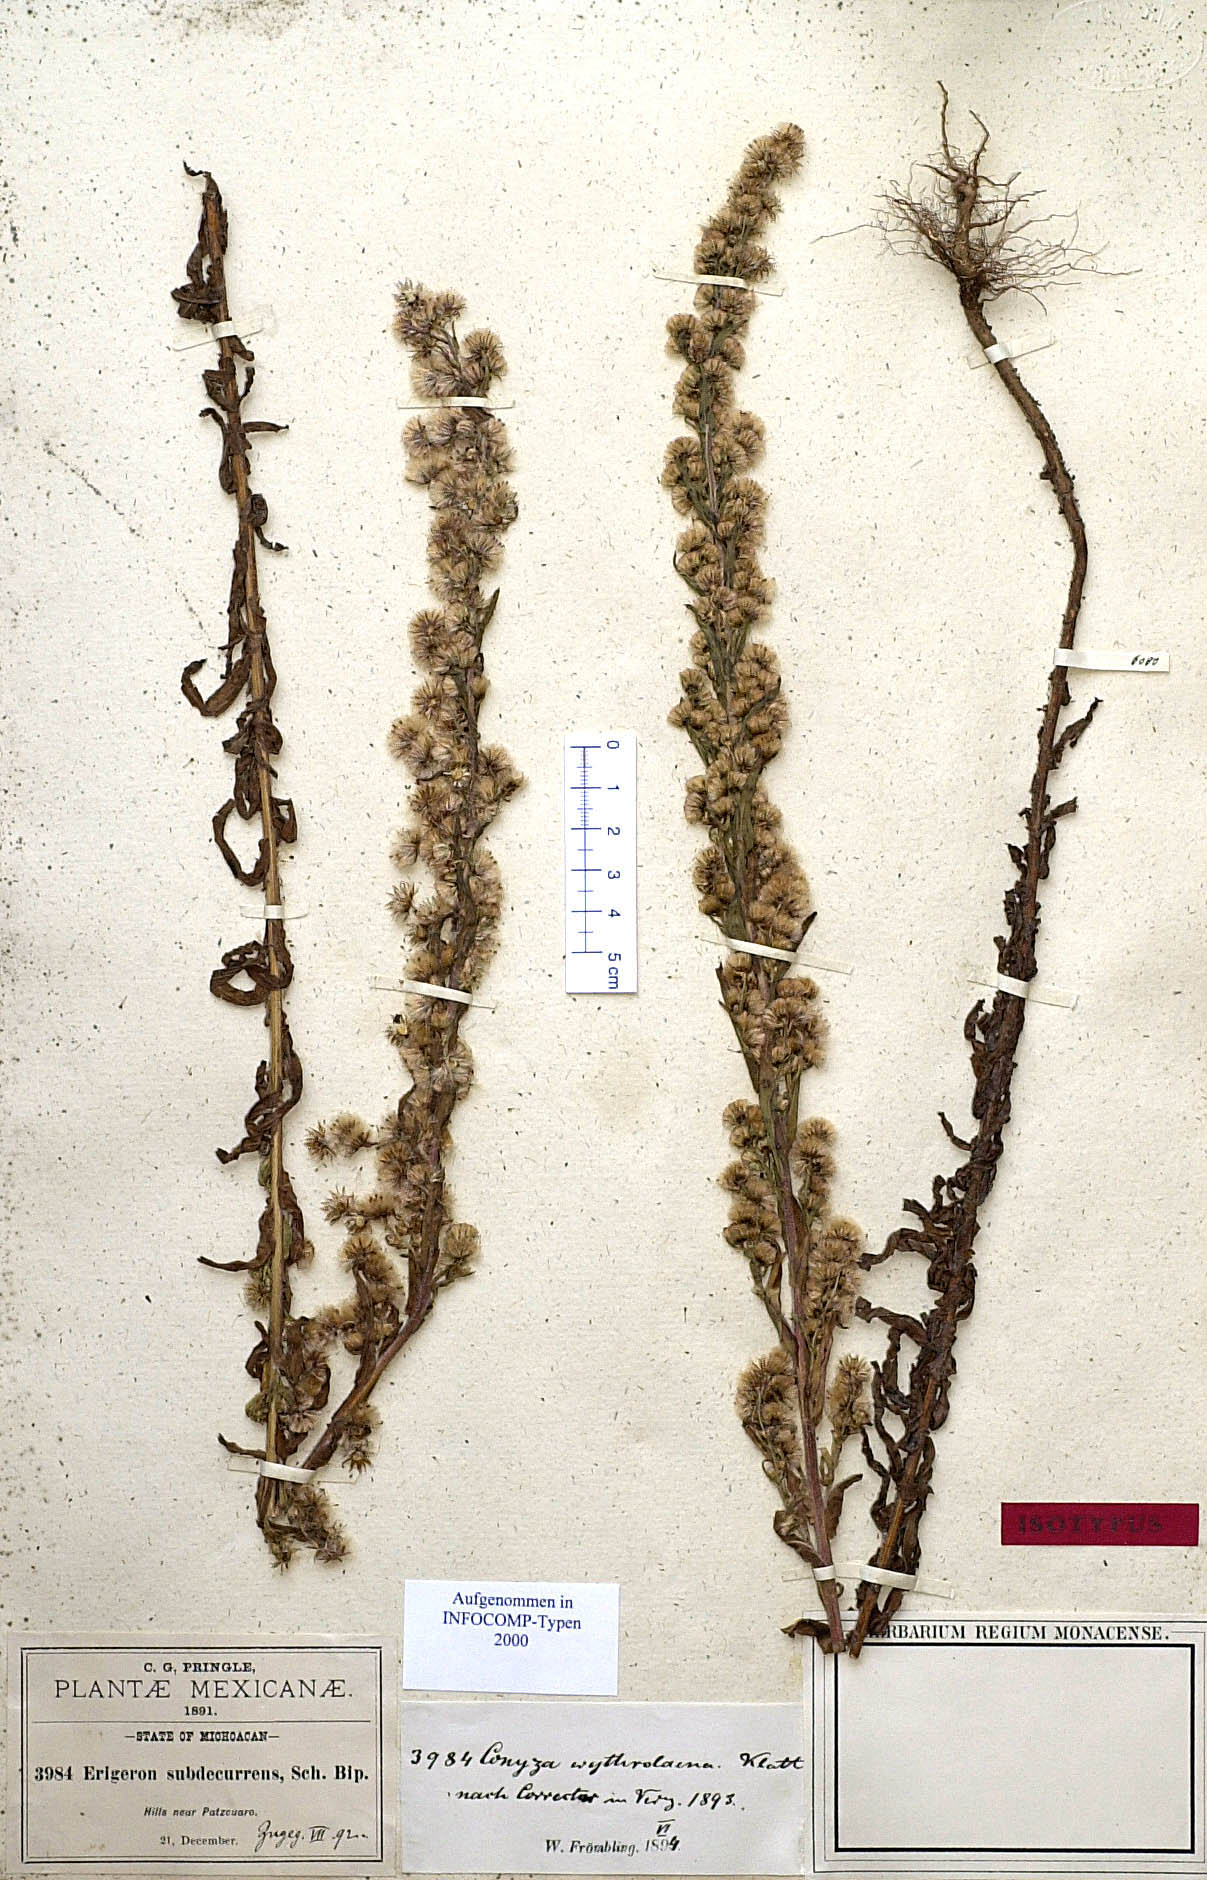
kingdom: Plantae
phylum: Tracheophyta
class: Magnoliopsida
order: Asterales
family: Asteraceae
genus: Laennecia
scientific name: Laennecia schiedeana
